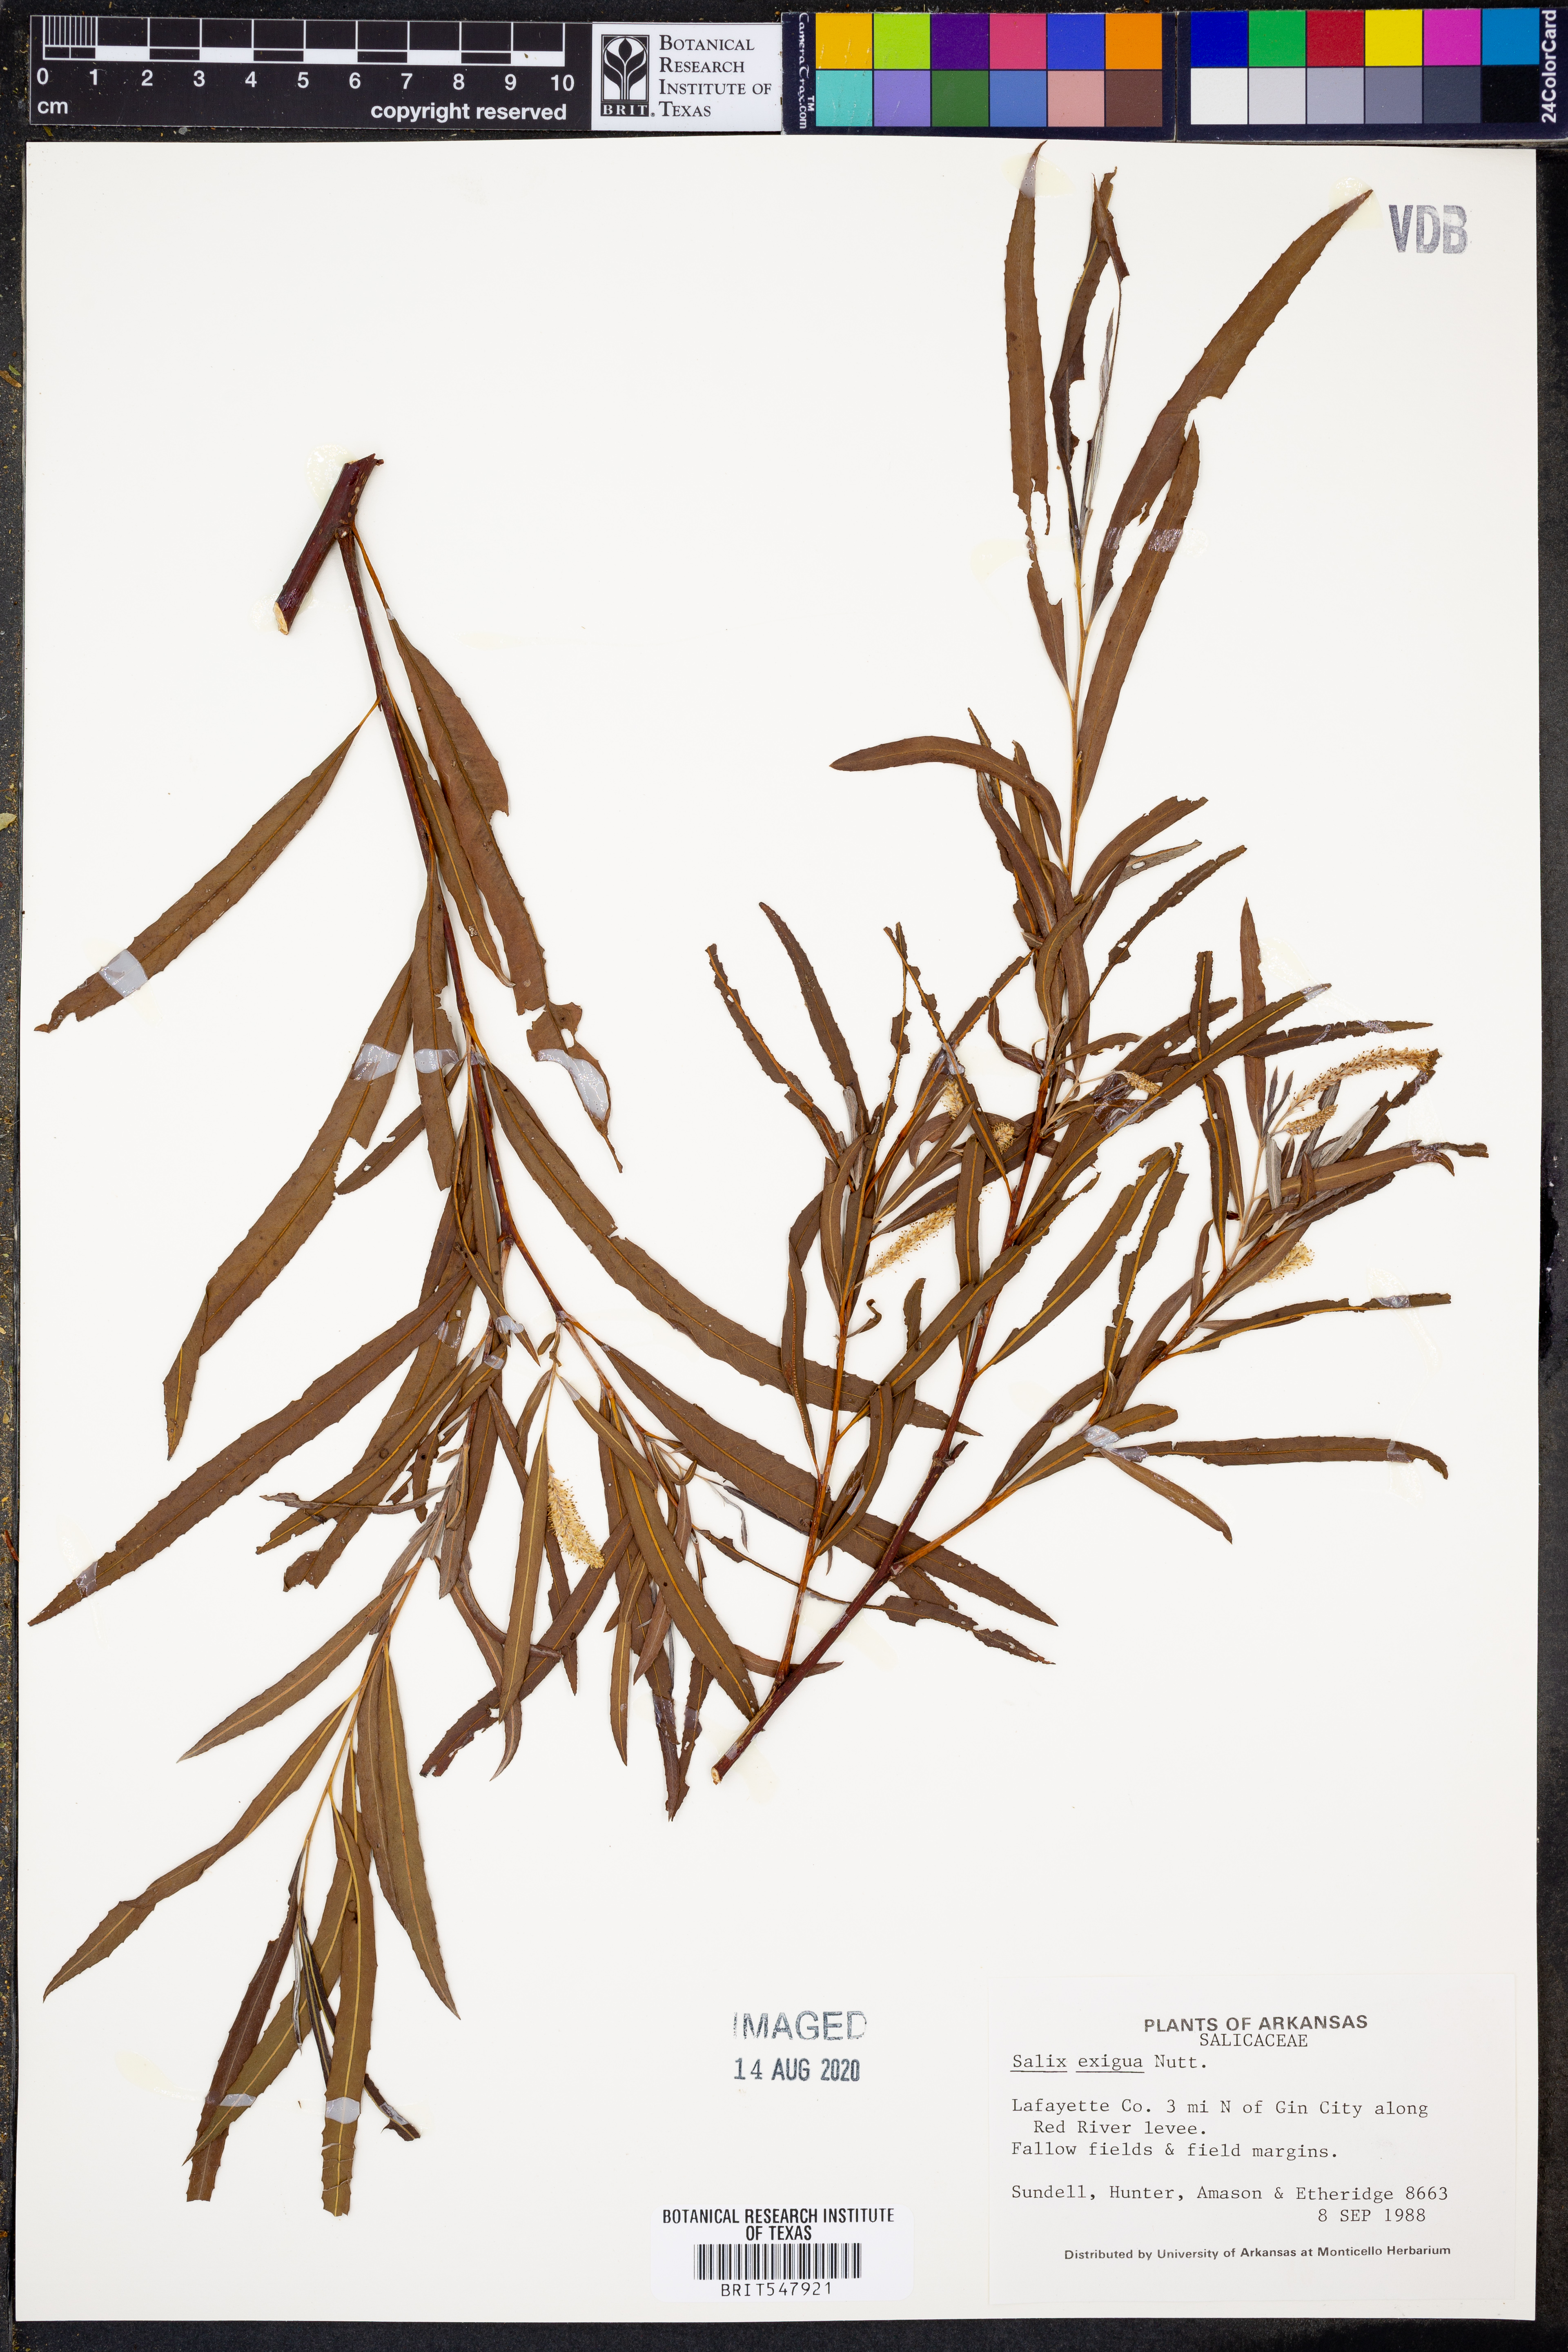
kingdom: Plantae
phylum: Tracheophyta
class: Magnoliopsida
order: Malpighiales
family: Salicaceae
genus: Salix
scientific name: Salix exigua
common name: Coyote willow
